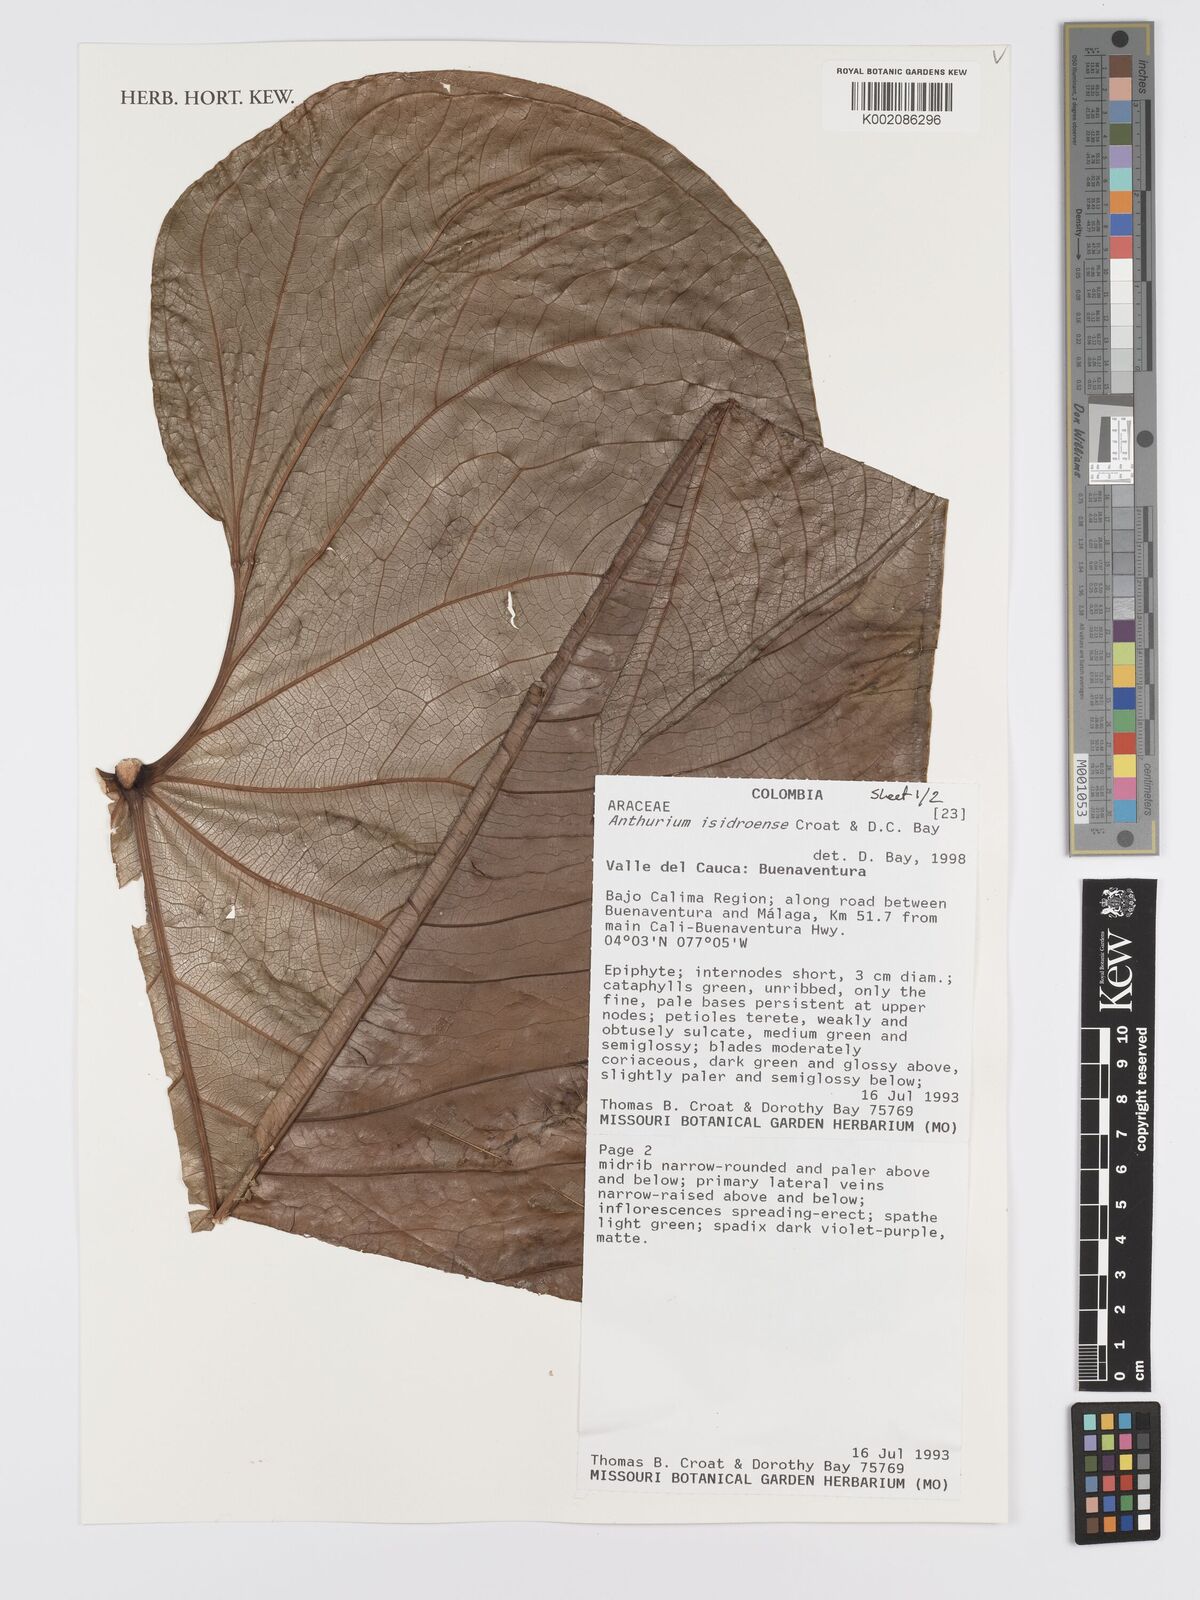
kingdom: Plantae
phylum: Tracheophyta
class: Liliopsida
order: Alismatales
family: Araceae
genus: Anthurium
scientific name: Anthurium isidroense
